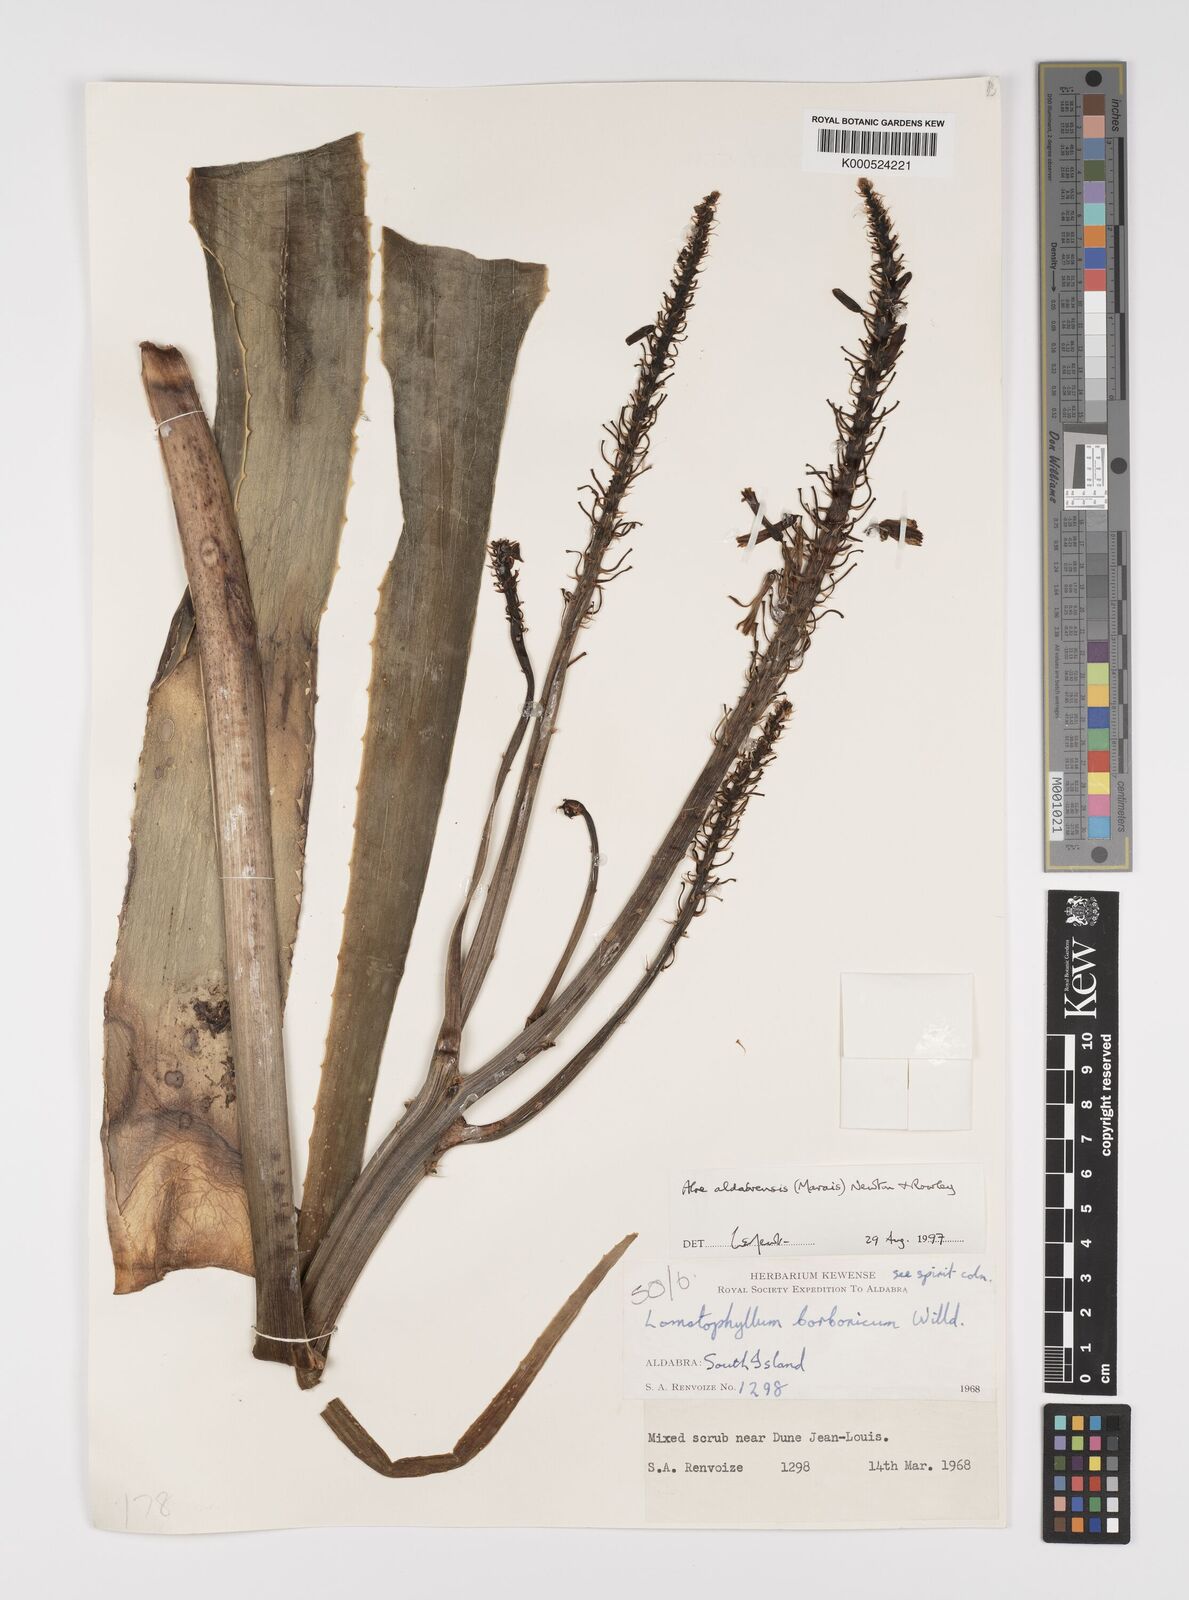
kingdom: Plantae
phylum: Tracheophyta
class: Liliopsida
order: Asparagales
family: Asphodelaceae
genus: Aloe
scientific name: Aloe aldabrensis
